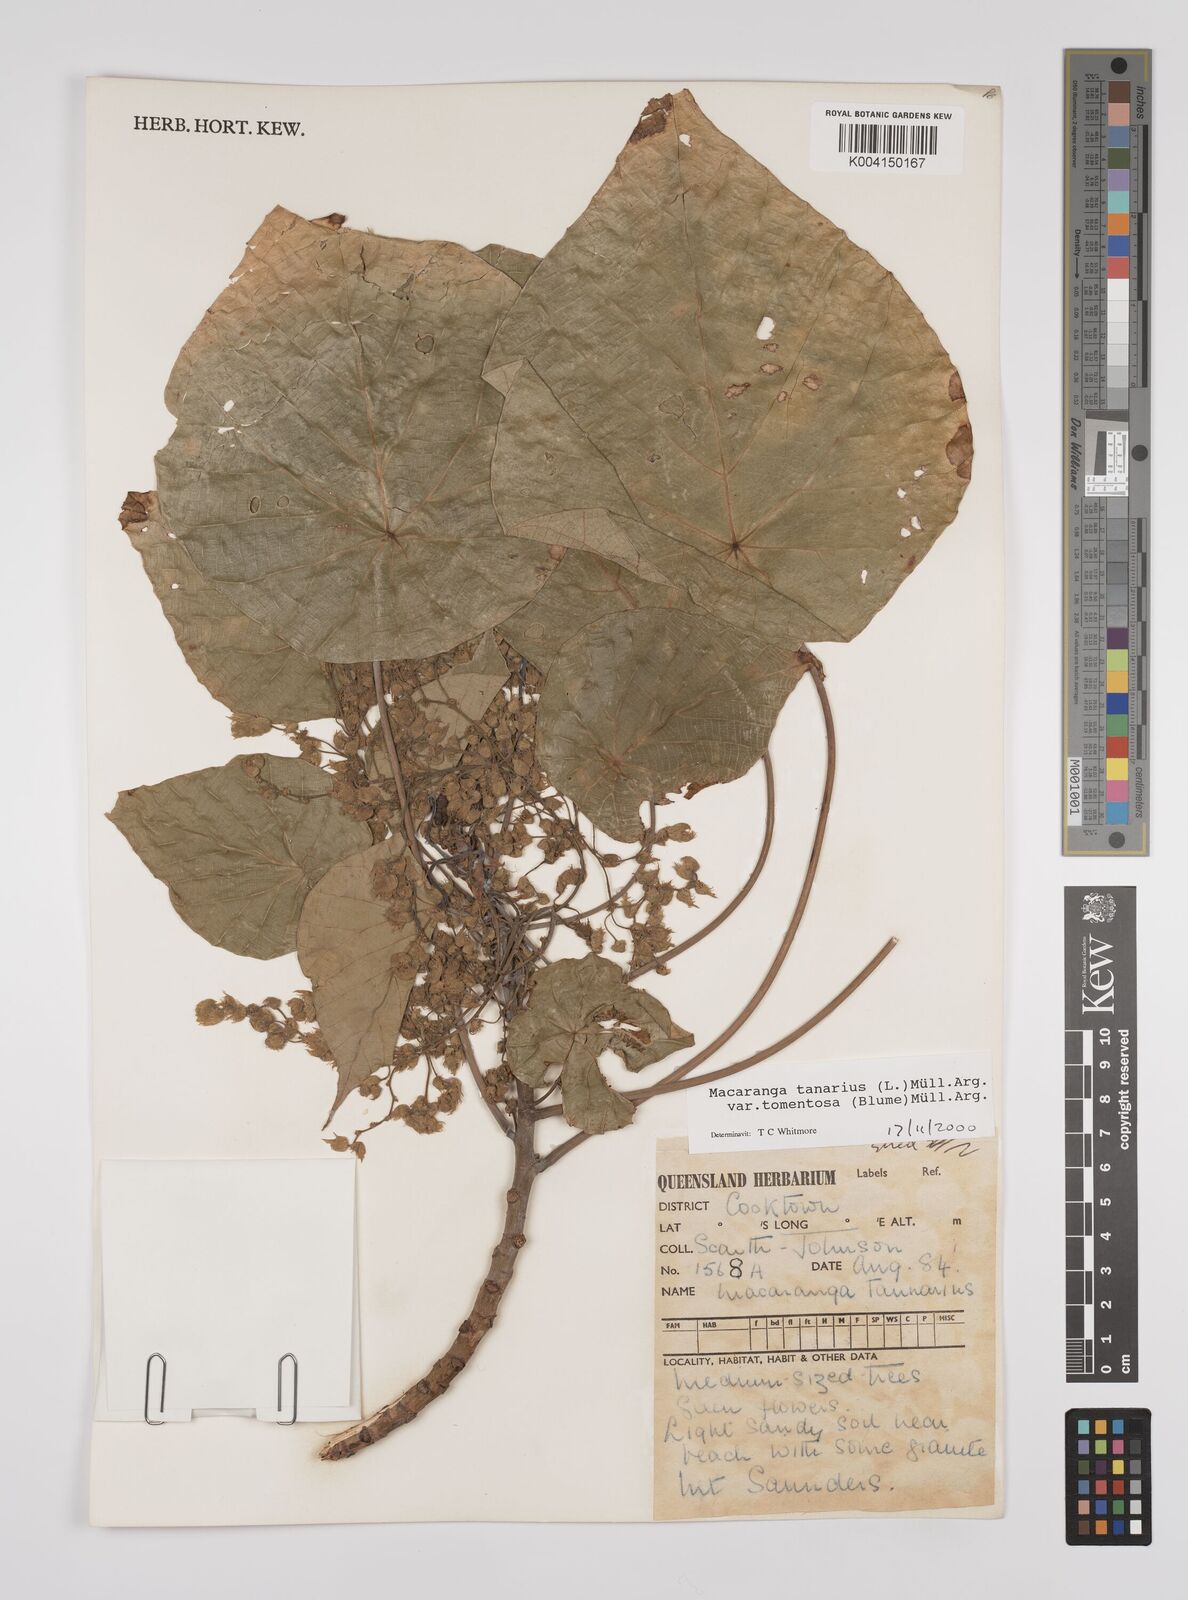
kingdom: Plantae
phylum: Tracheophyta
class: Magnoliopsida
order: Malpighiales
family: Euphorbiaceae
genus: Macaranga
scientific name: Macaranga tanarius
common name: Parasol leaf tree
